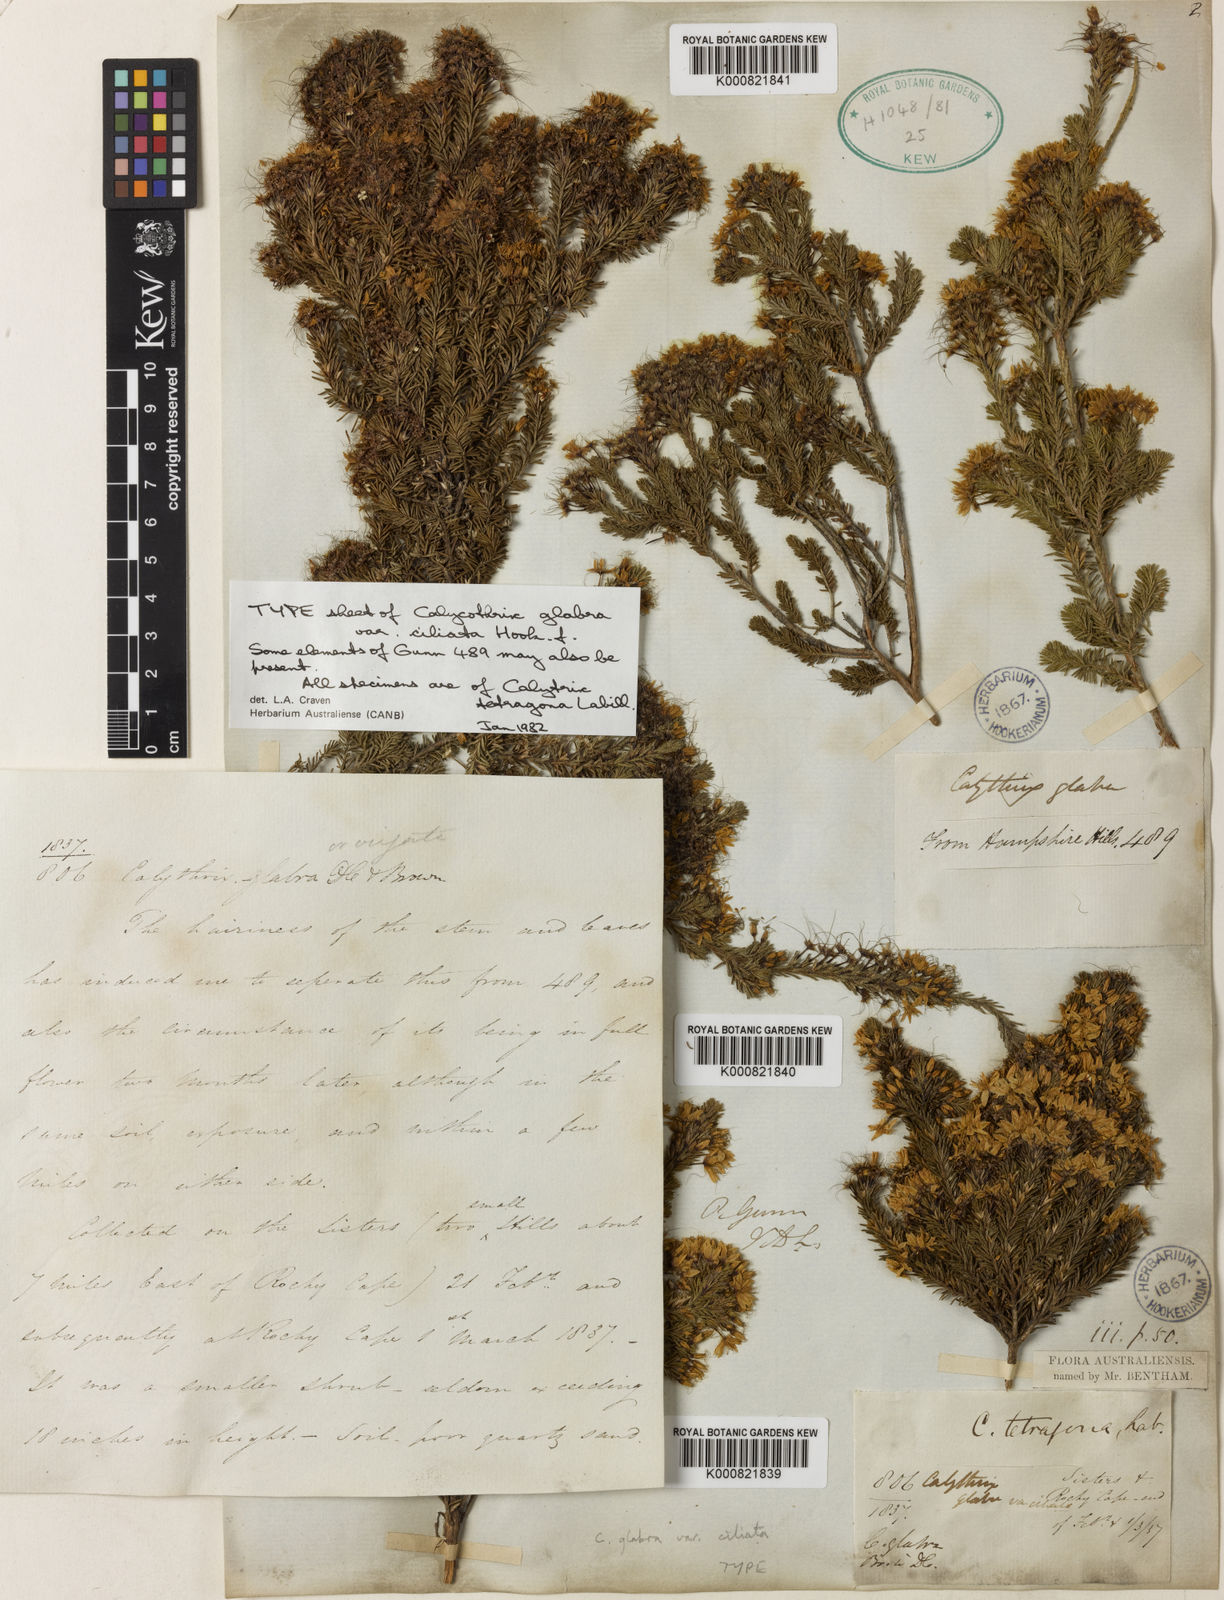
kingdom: Plantae
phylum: Tracheophyta
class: Magnoliopsida
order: Myrtales
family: Myrtaceae
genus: Calytrix
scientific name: Calytrix tetragona
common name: Common fringe myrtle
